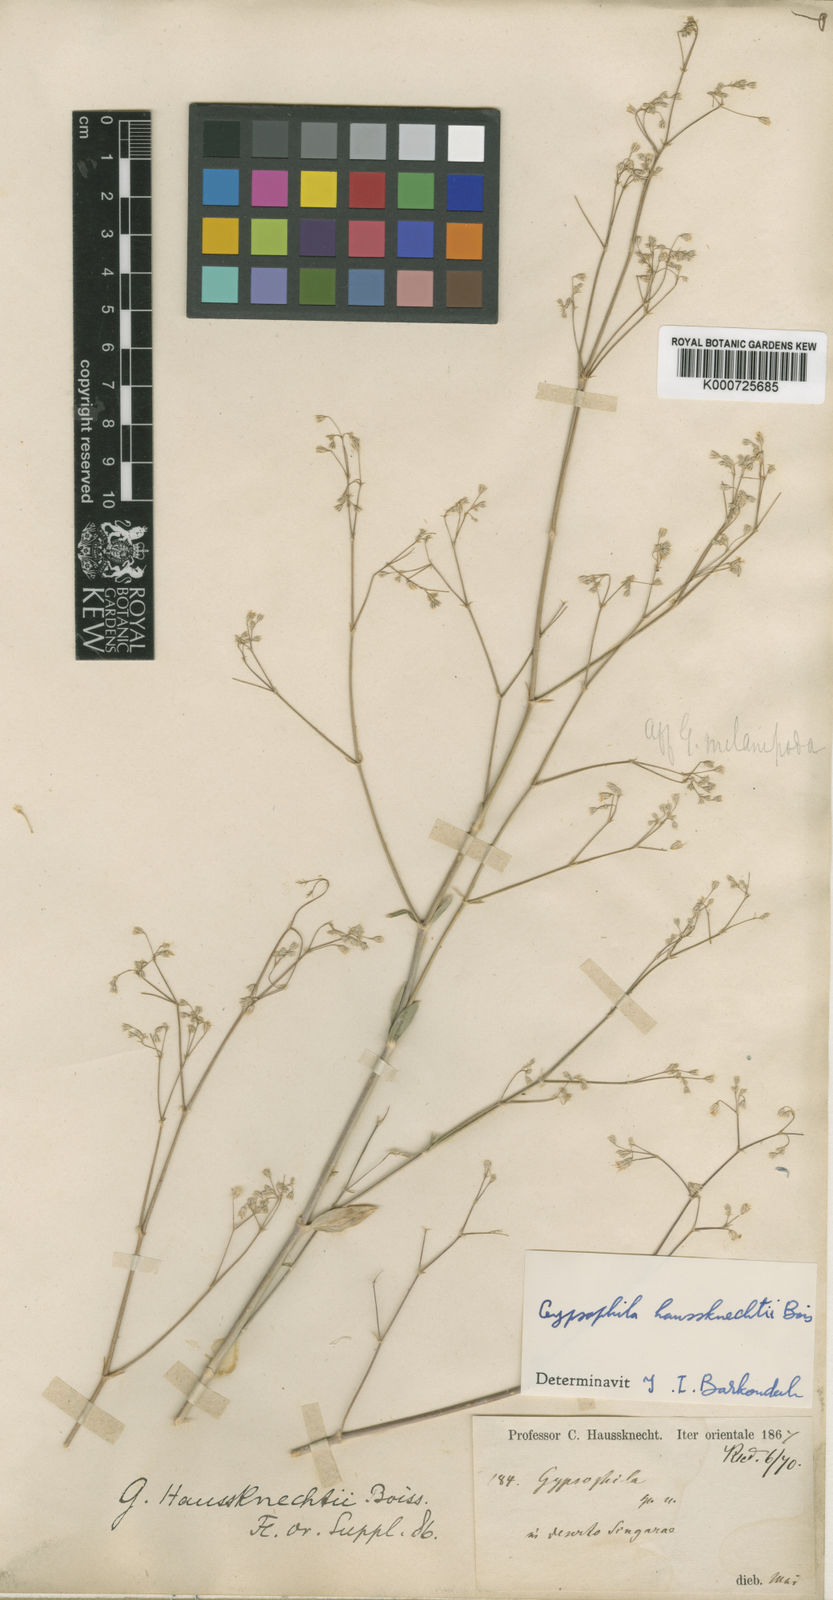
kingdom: Plantae
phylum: Tracheophyta
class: Magnoliopsida
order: Caryophyllales
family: Caryophyllaceae
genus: Gypsophila
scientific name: Gypsophila pallida
